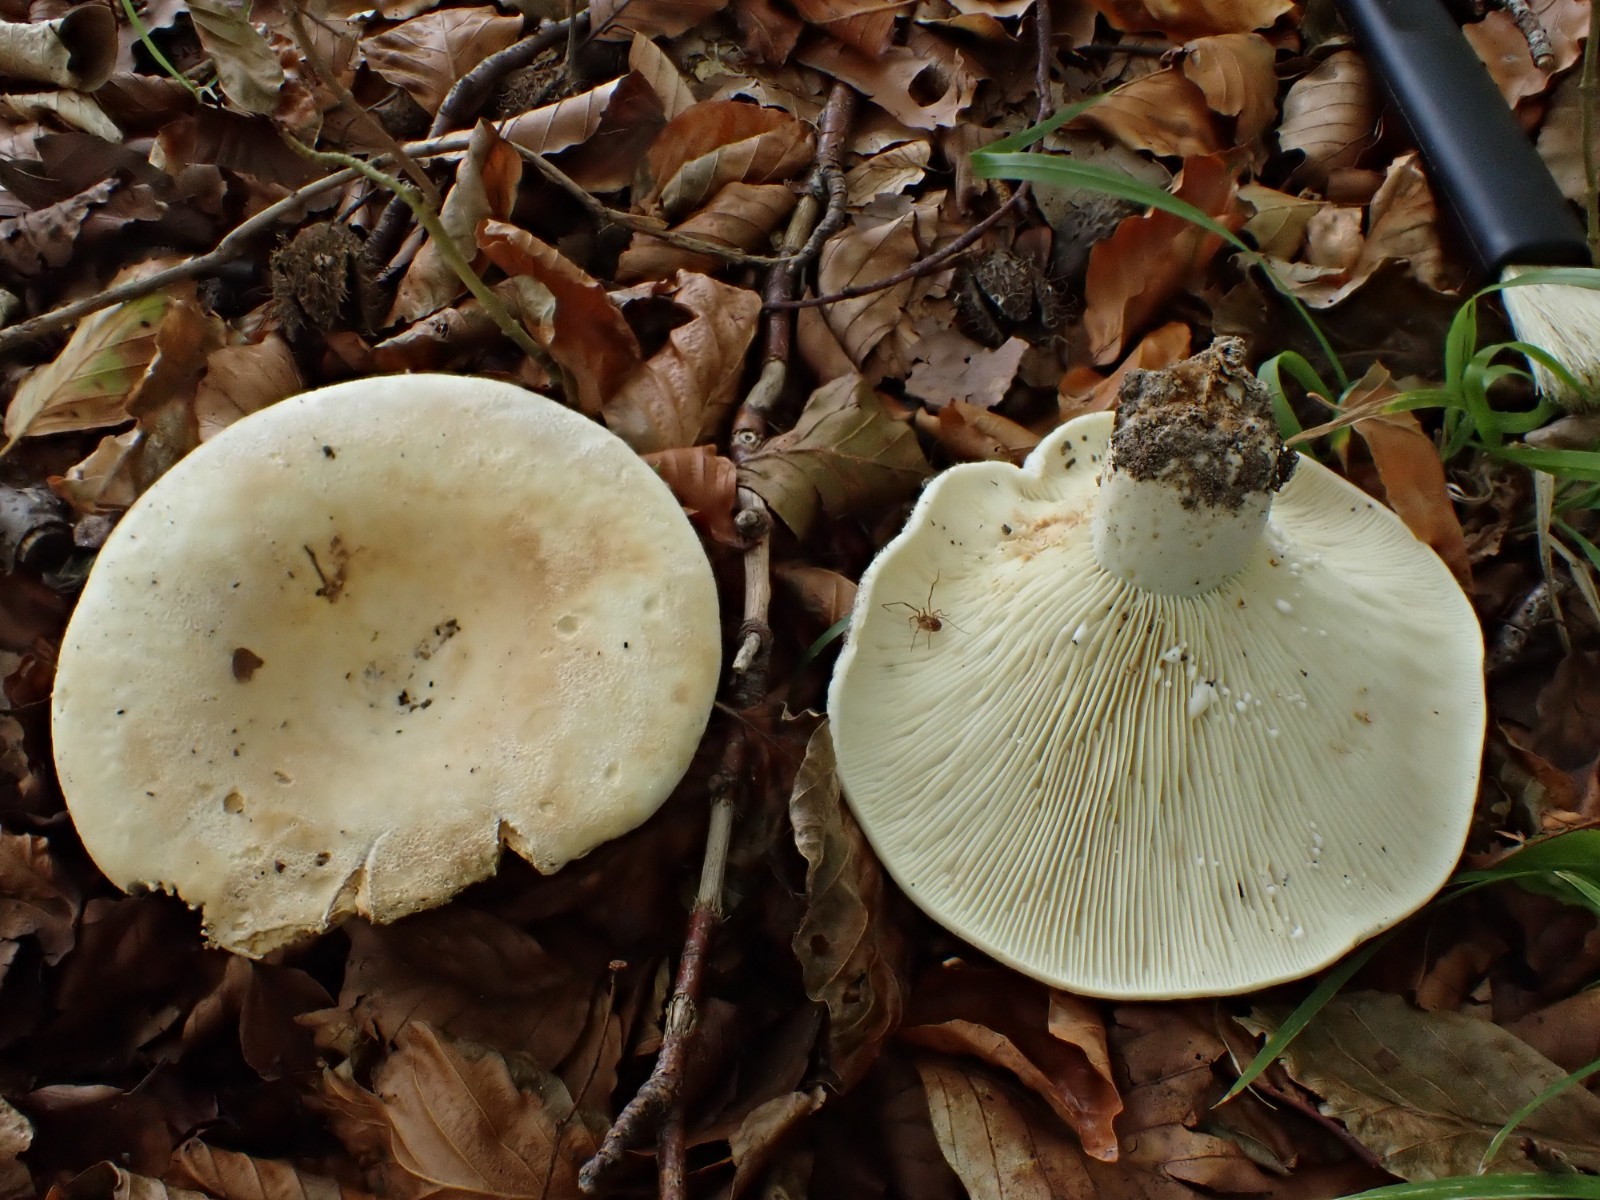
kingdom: Fungi
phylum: Basidiomycota
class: Agaricomycetes
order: Russulales
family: Russulaceae
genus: Lactifluus
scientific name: Lactifluus vellereus
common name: hvidfiltet mælkehat
